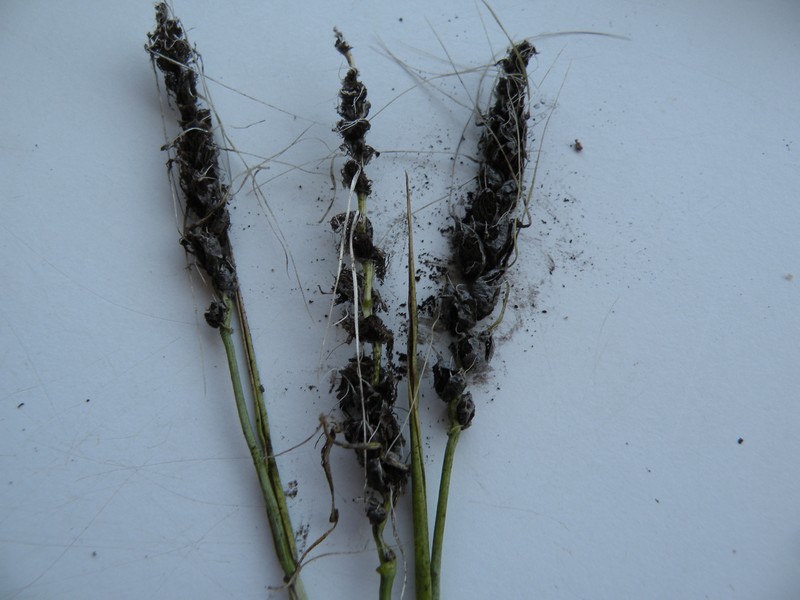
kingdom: Fungi
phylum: Basidiomycota
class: Ustilaginomycetes
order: Ustilaginales
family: Ustilaginaceae
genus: Ustilago
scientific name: Ustilago nuda
